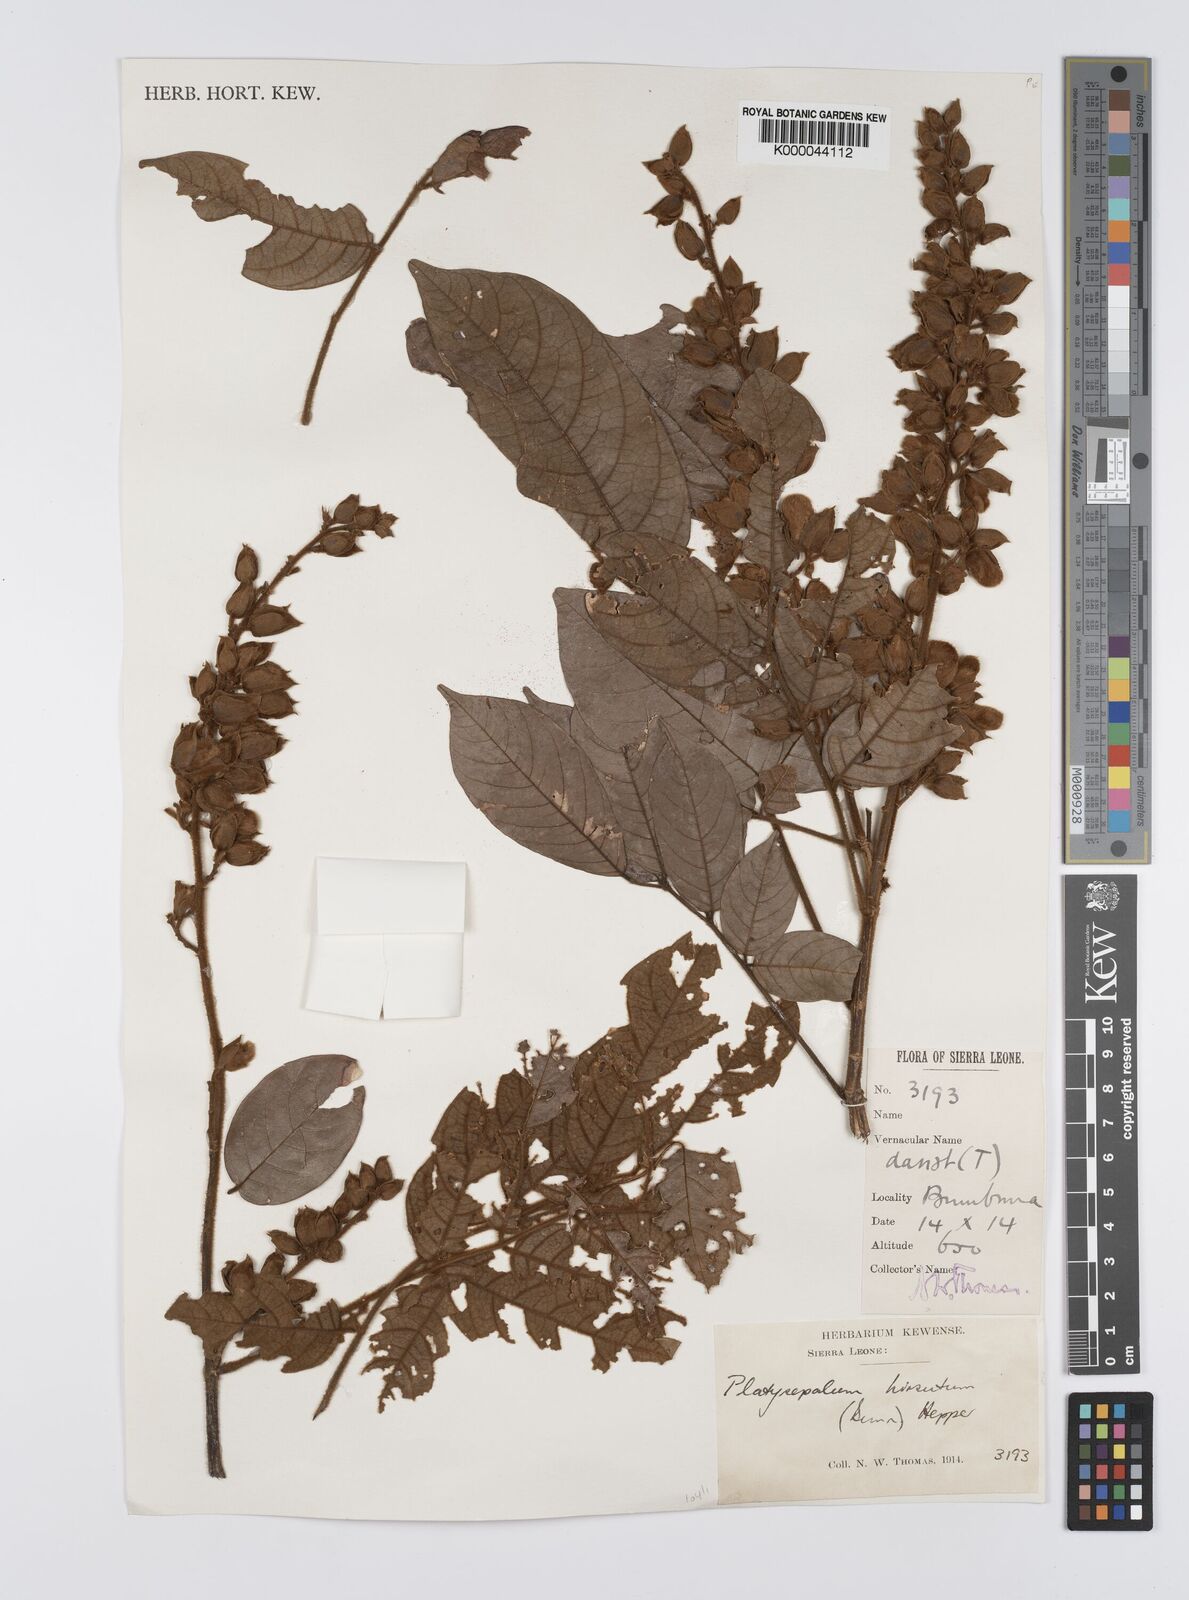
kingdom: Plantae
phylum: Tracheophyta
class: Magnoliopsida
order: Fabales
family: Fabaceae
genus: Platysepalum
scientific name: Platysepalum hirsutum
